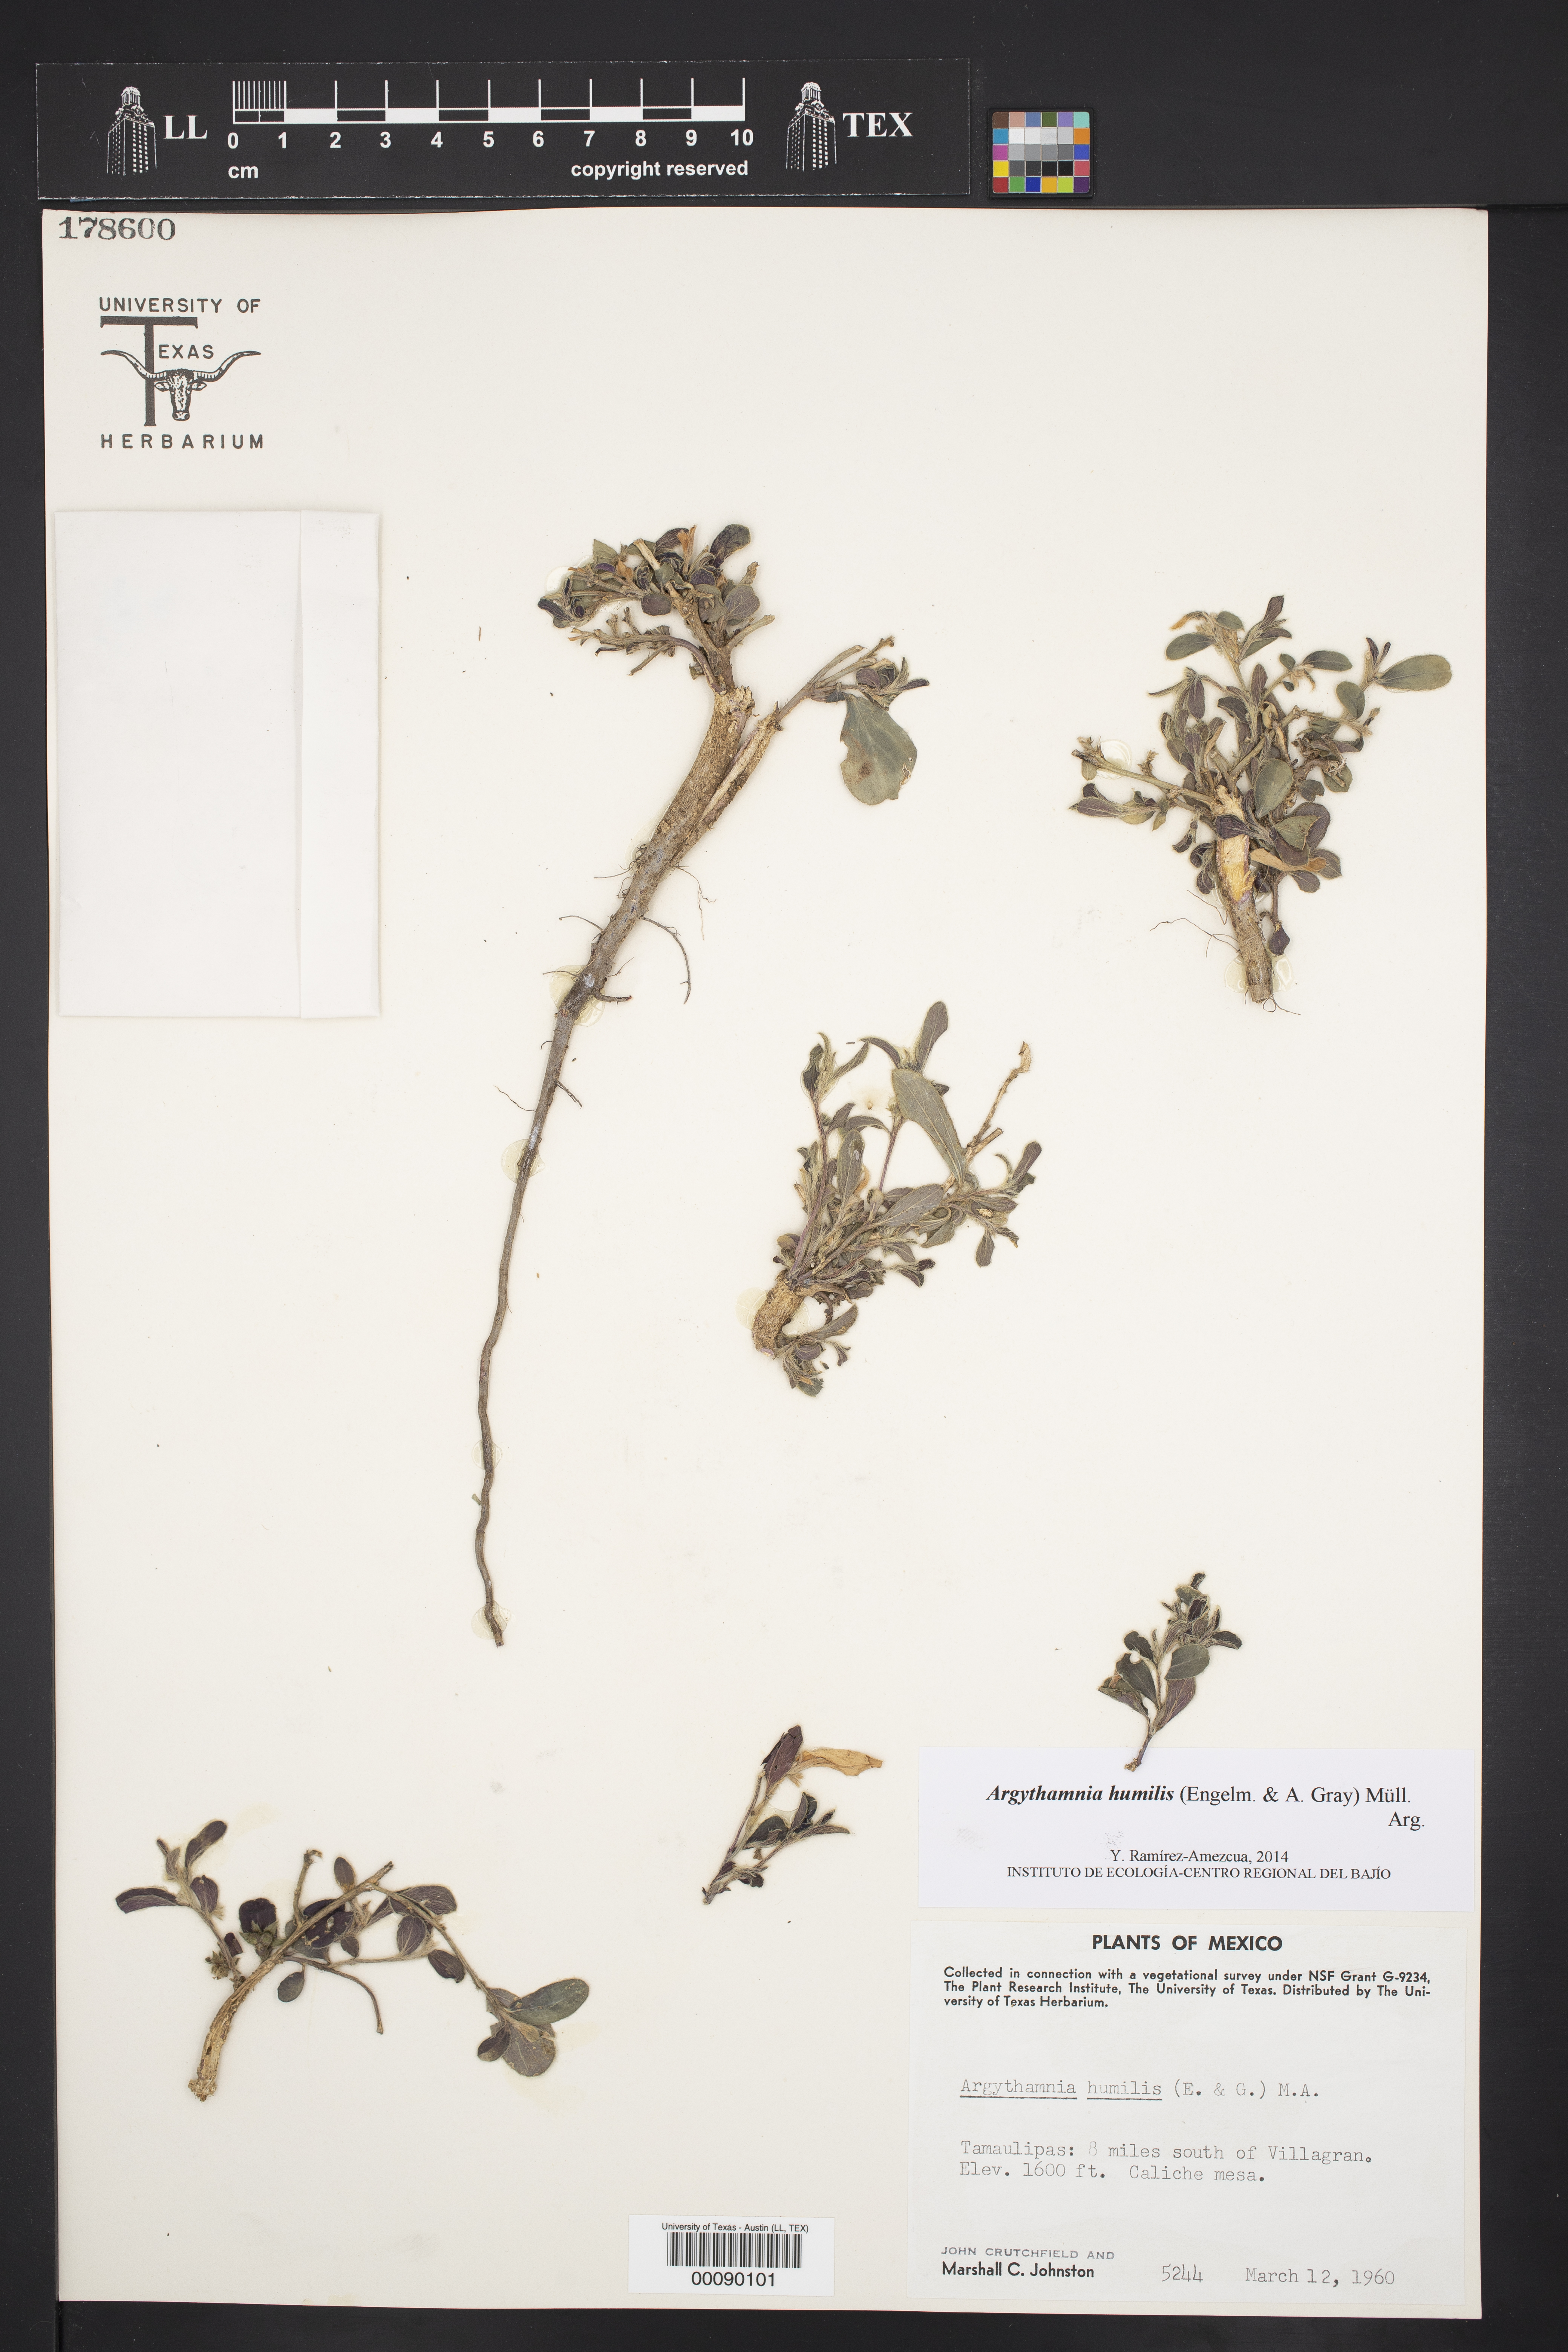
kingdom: Plantae
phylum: Tracheophyta
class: Magnoliopsida
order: Malpighiales
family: Euphorbiaceae
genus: Ditaxis
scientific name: Ditaxis humilis
